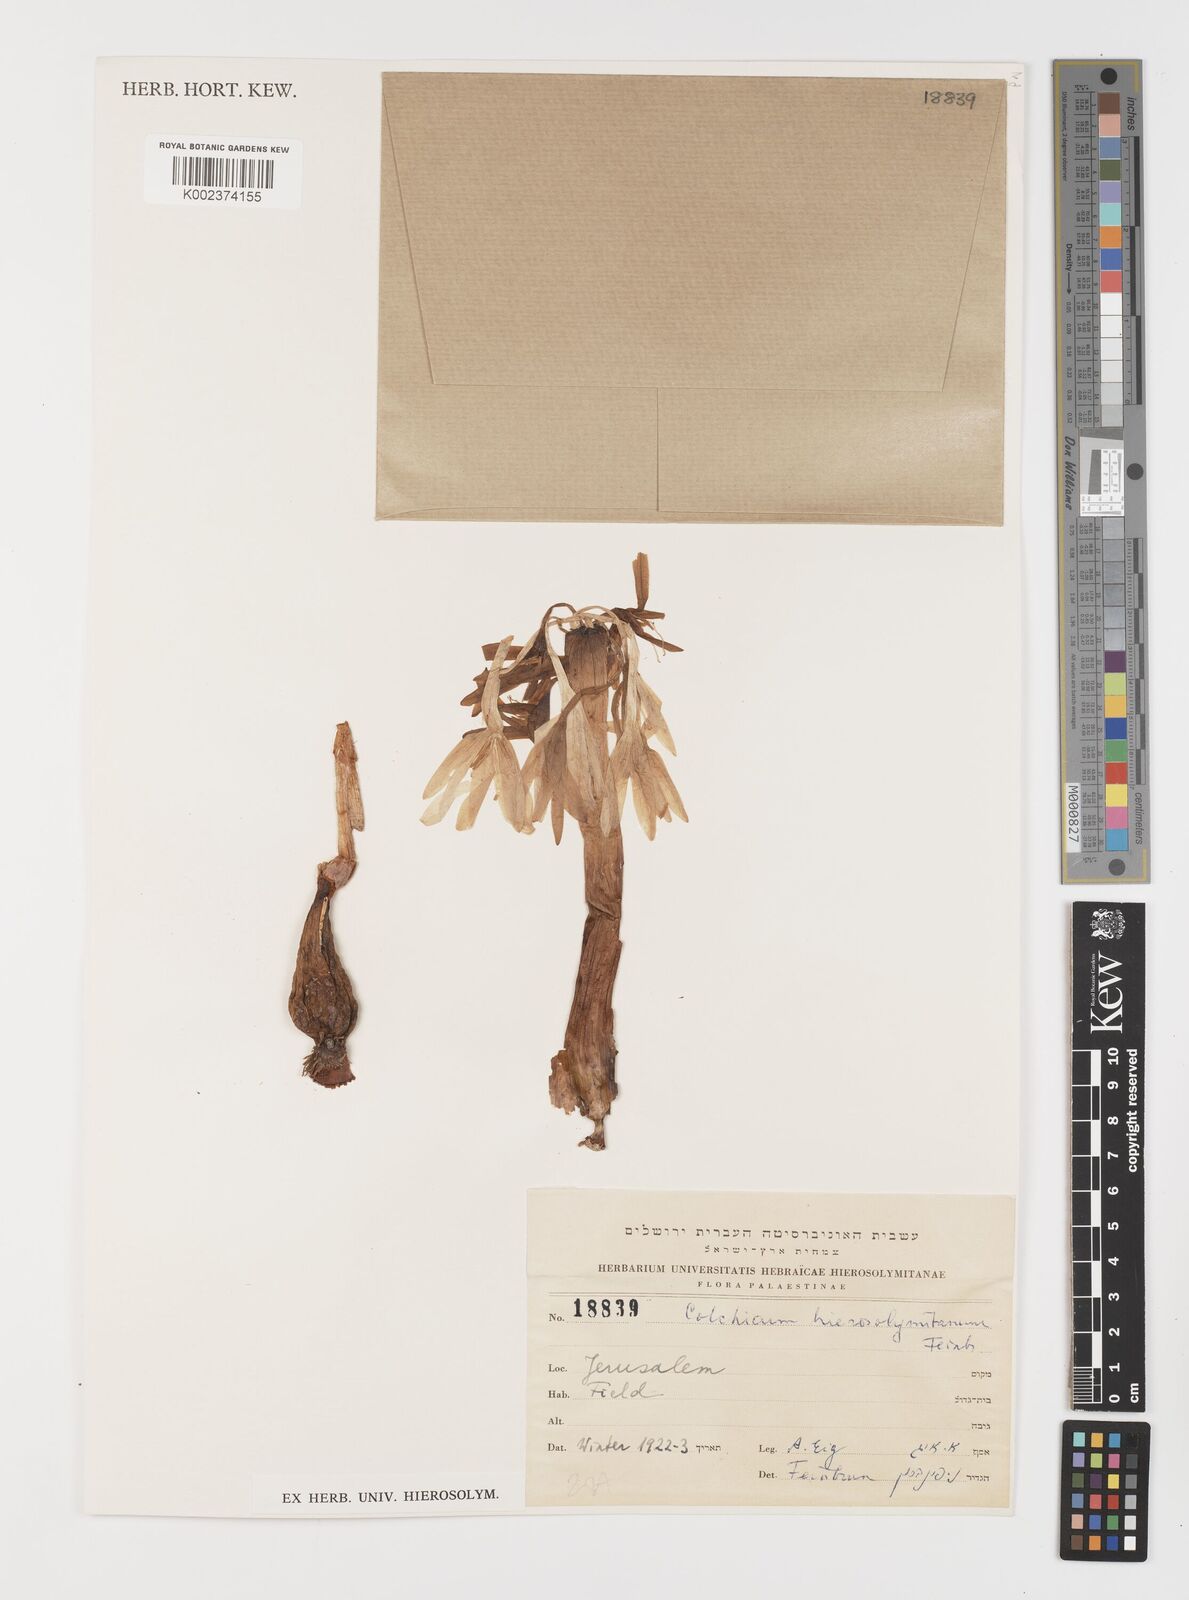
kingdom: Plantae
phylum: Tracheophyta
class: Liliopsida
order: Liliales
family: Colchicaceae
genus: Colchicum
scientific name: Colchicum hierosolymitanum
